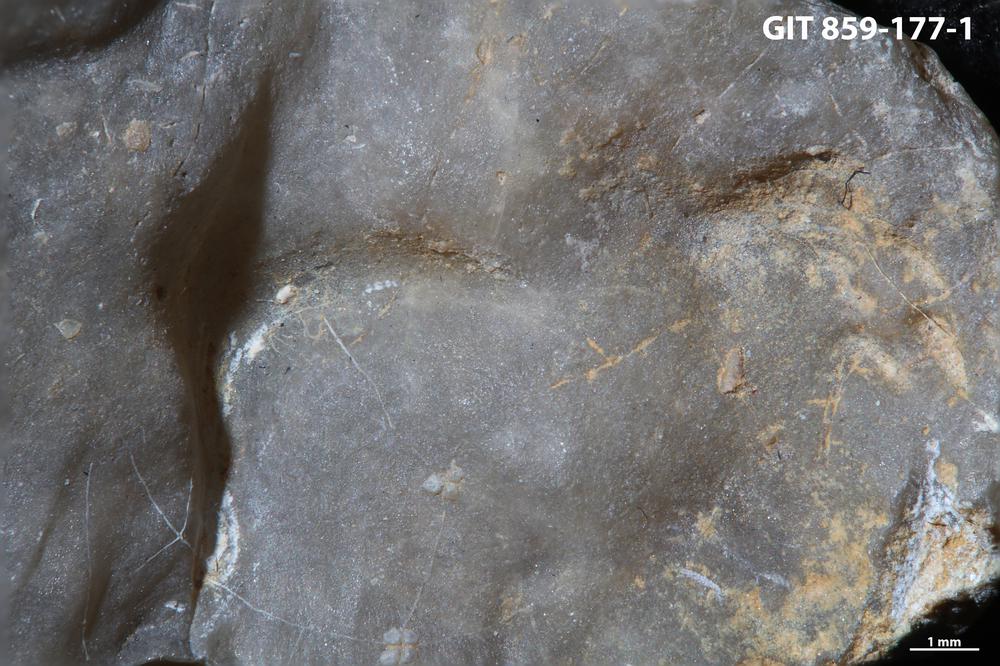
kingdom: Animalia
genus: Pinaceocladichnus
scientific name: Pinaceocladichnus
